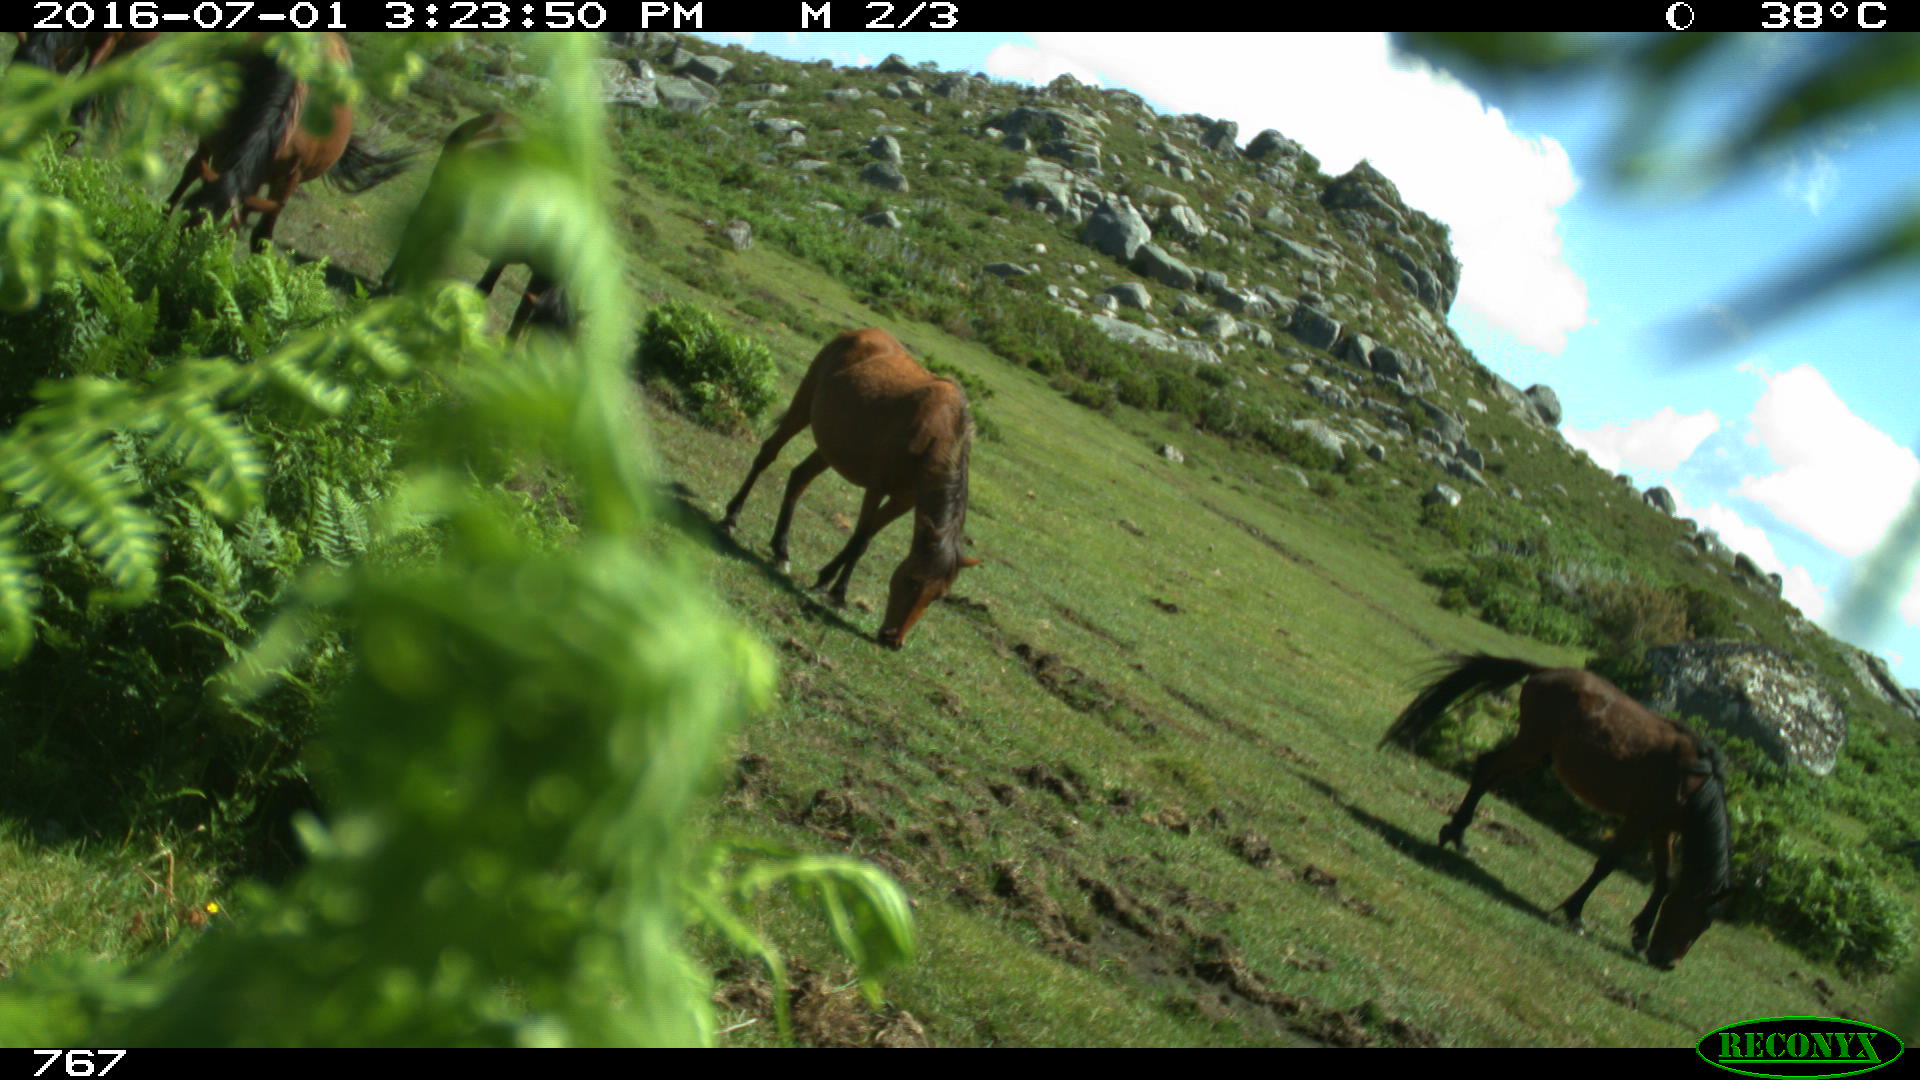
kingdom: Animalia
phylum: Chordata
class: Mammalia
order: Perissodactyla
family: Equidae
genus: Equus
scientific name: Equus caballus
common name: Horse
